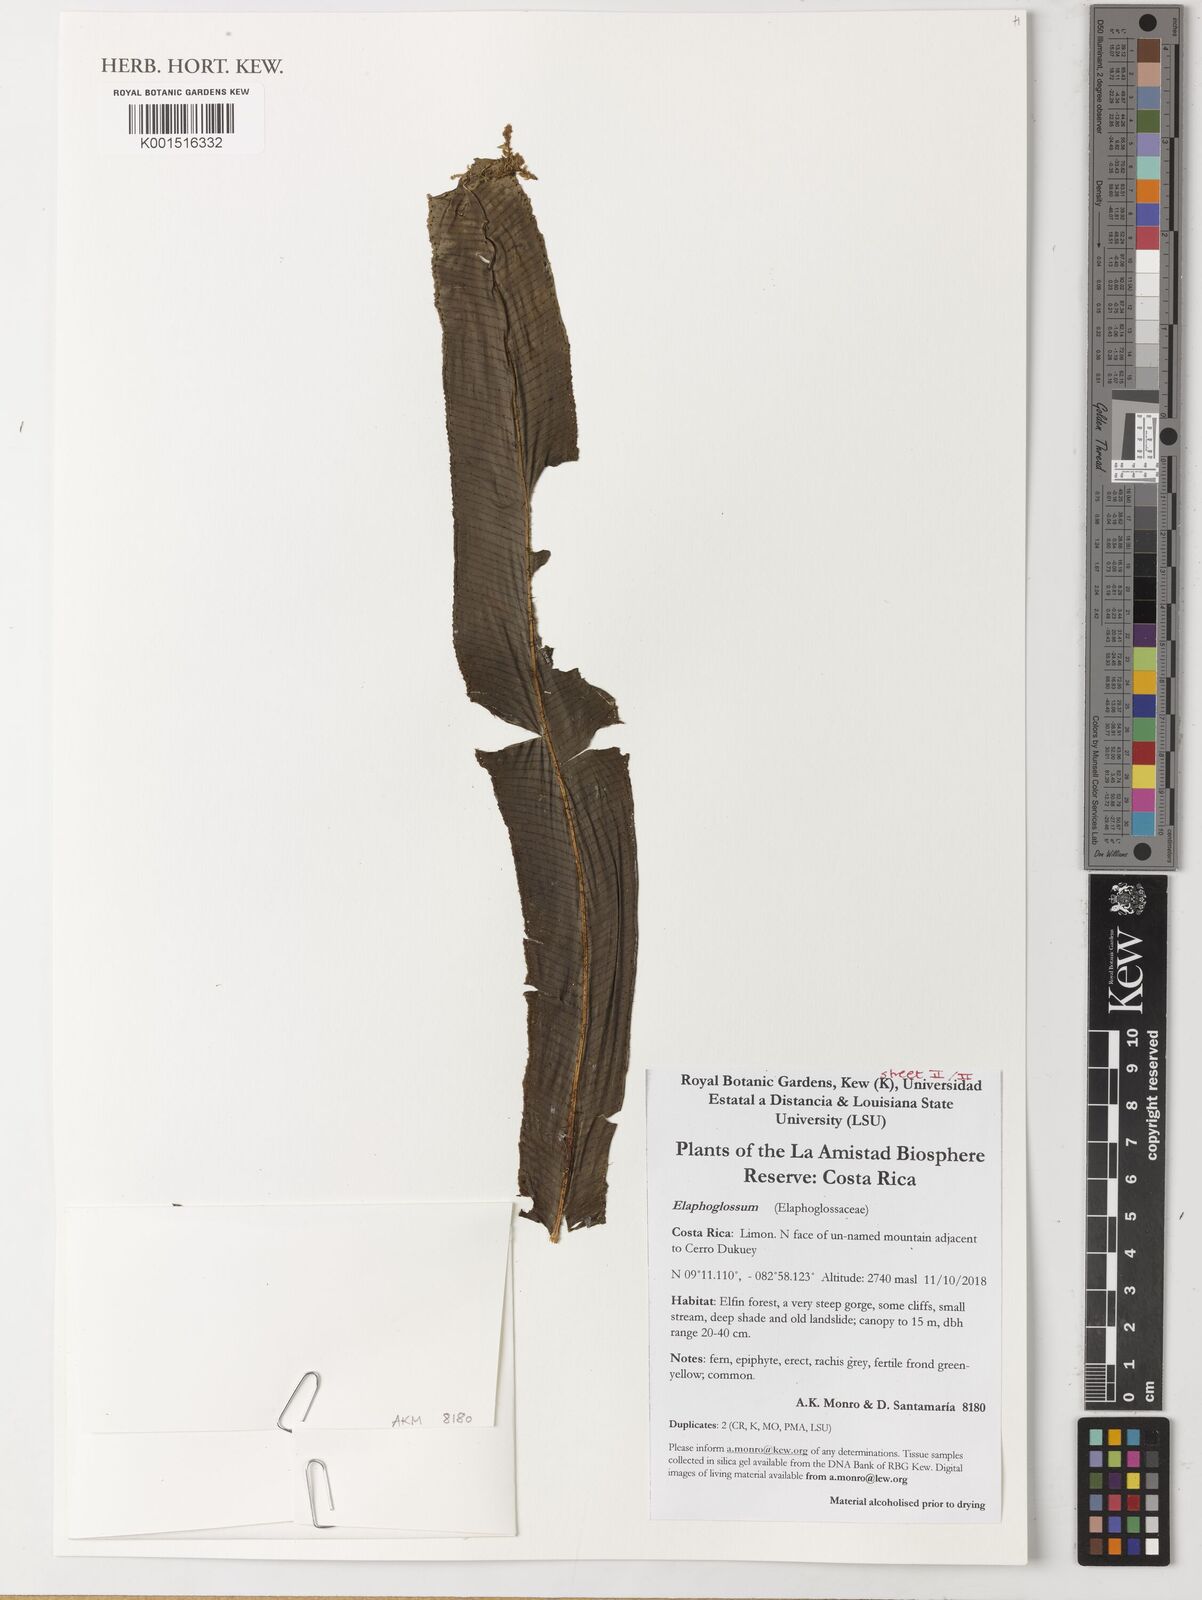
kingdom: Plantae
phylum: Tracheophyta
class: Polypodiopsida
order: Polypodiales
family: Dryopteridaceae
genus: Elaphoglossum
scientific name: Elaphoglossum
